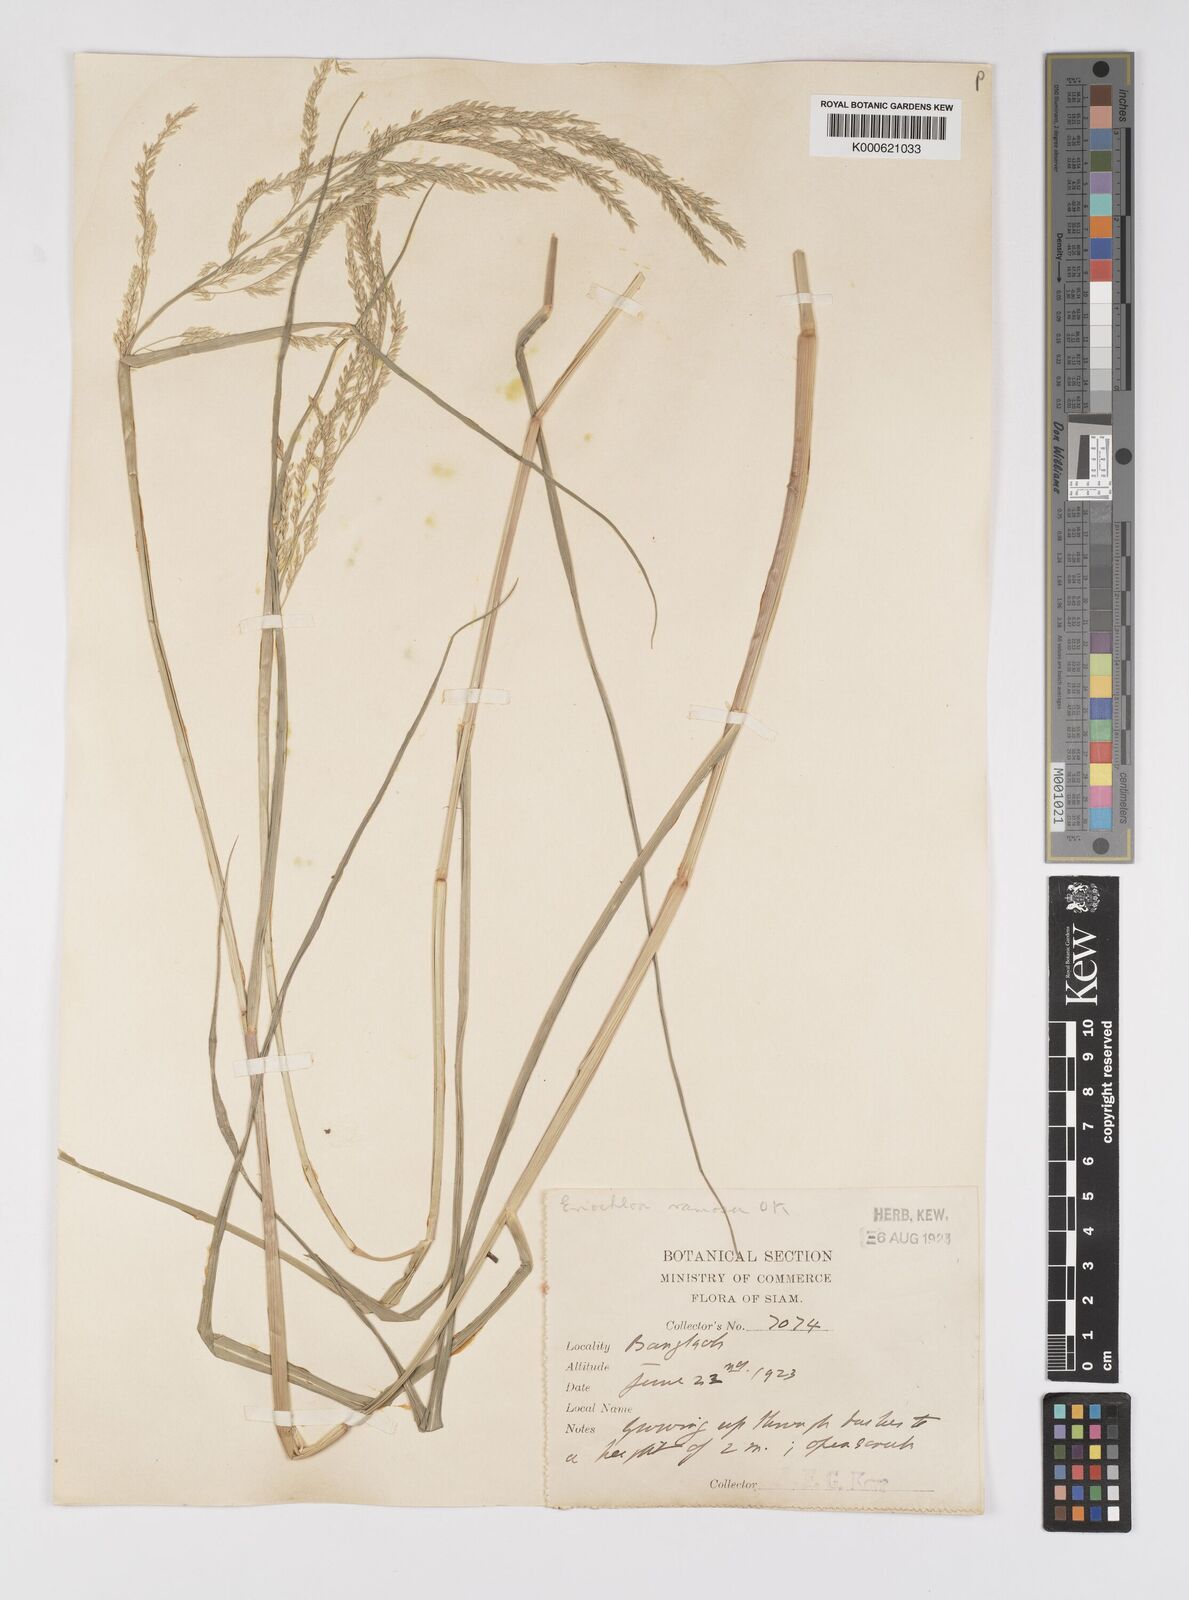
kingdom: Plantae
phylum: Tracheophyta
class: Liliopsida
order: Poales
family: Poaceae
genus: Eriochloa
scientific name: Eriochloa procera
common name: Spring grass
